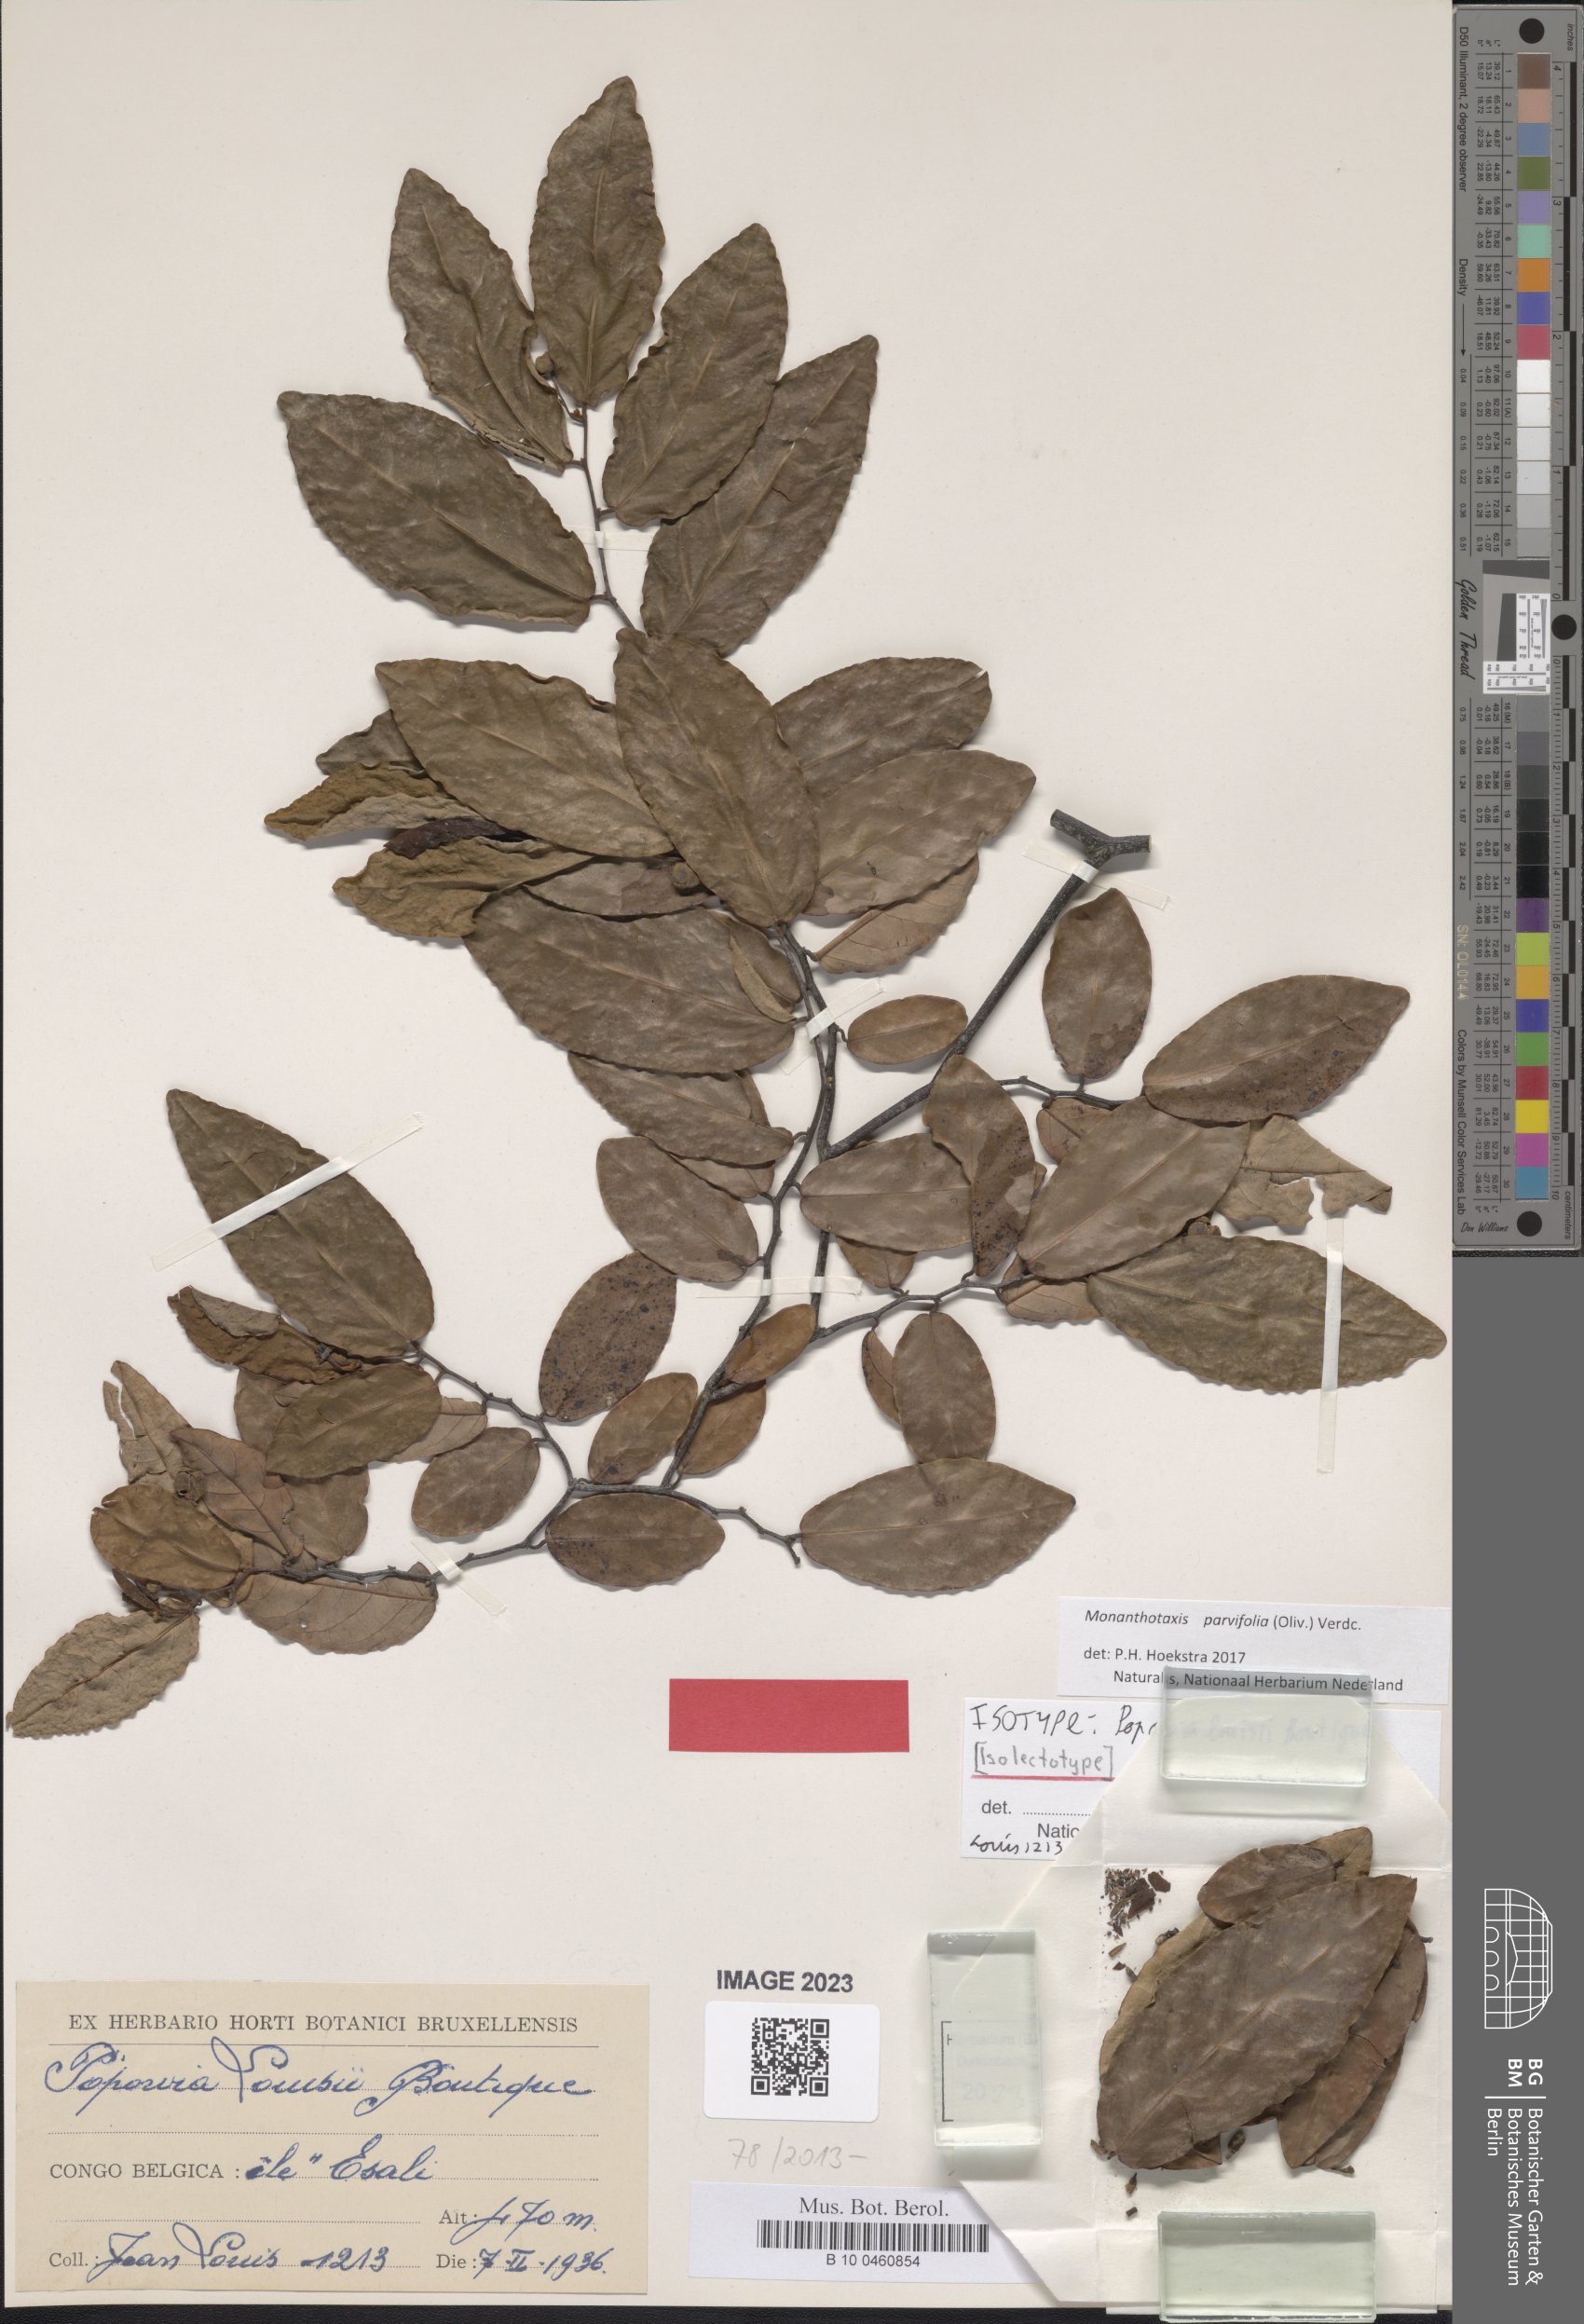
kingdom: Plantae
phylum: Tracheophyta
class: Magnoliopsida
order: Magnoliales
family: Annonaceae
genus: Monanthotaxis
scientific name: Monanthotaxis parvifolia
